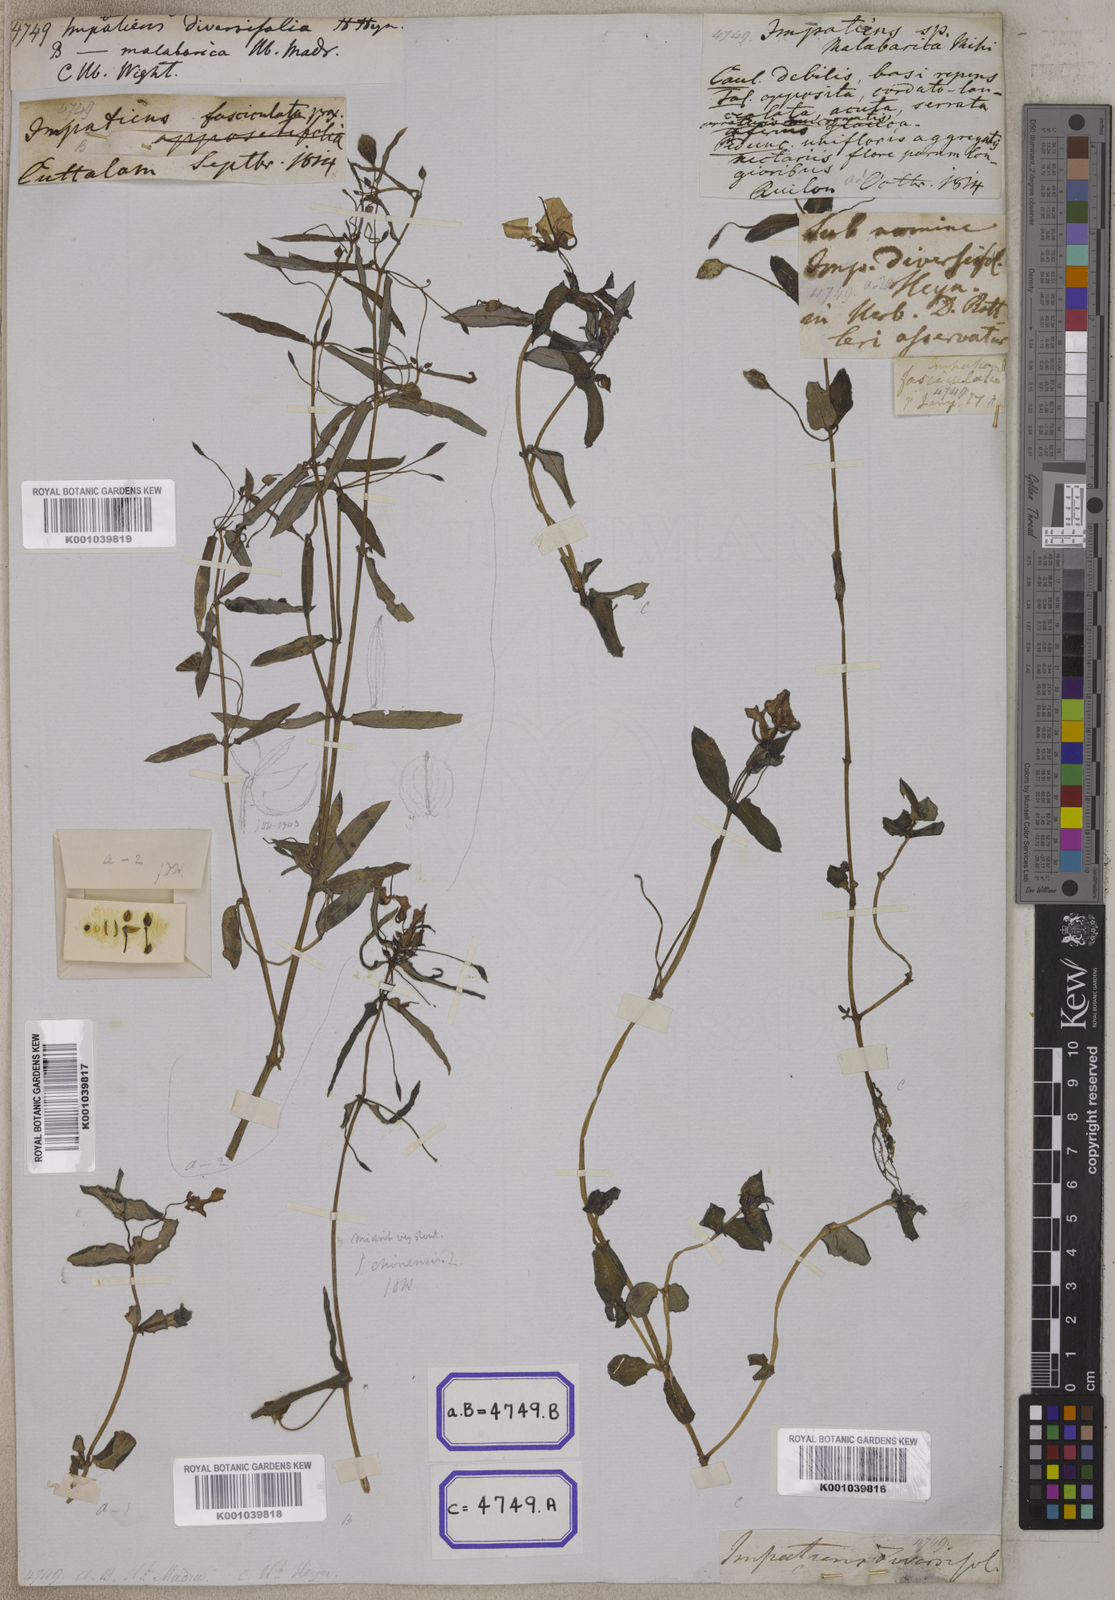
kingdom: Plantae
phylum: Tracheophyta
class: Magnoliopsida
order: Ericales
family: Balsaminaceae
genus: Impatiens
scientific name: Impatiens
